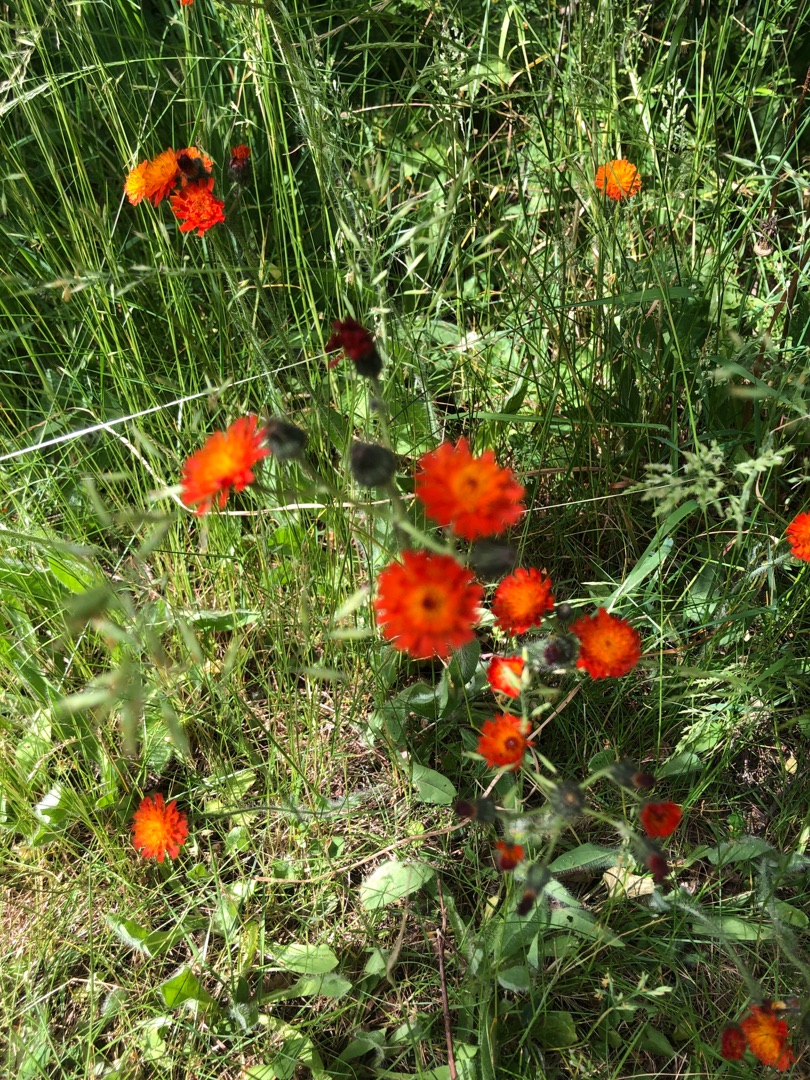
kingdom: Plantae
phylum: Tracheophyta
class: Magnoliopsida
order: Asterales
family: Asteraceae
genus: Pilosella
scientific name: Pilosella aurantiaca
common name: Pomerans-høgeurt
